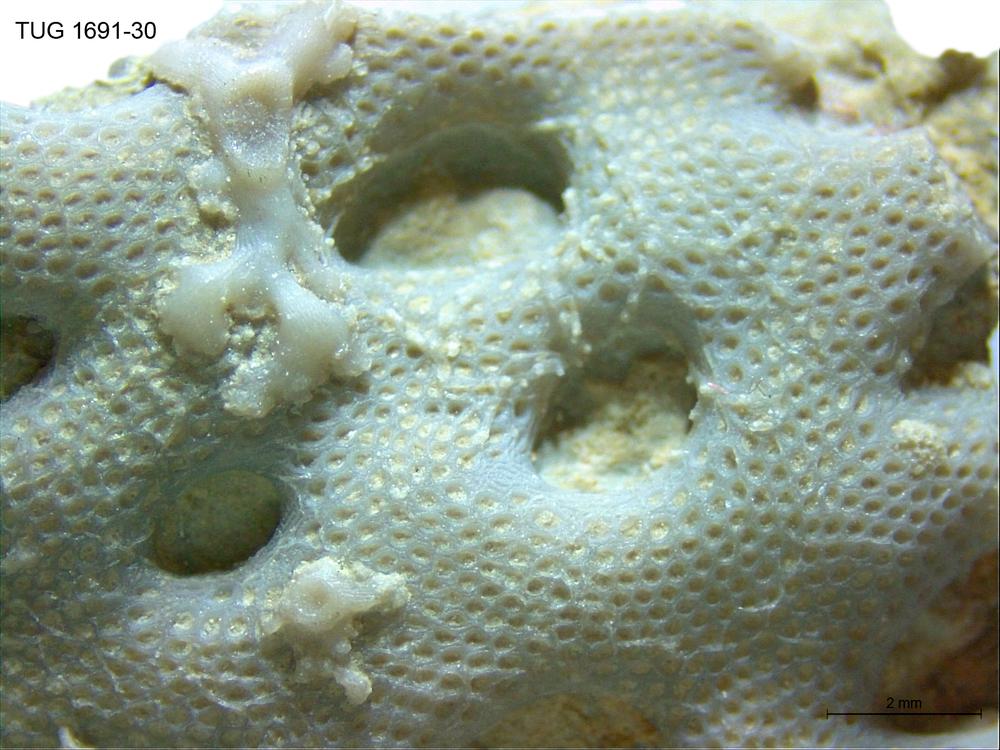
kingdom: Animalia
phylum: Bryozoa
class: Stenolaemata
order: Cryptostomida
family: Escharoporidae
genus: Oanduella
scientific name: Oanduella
